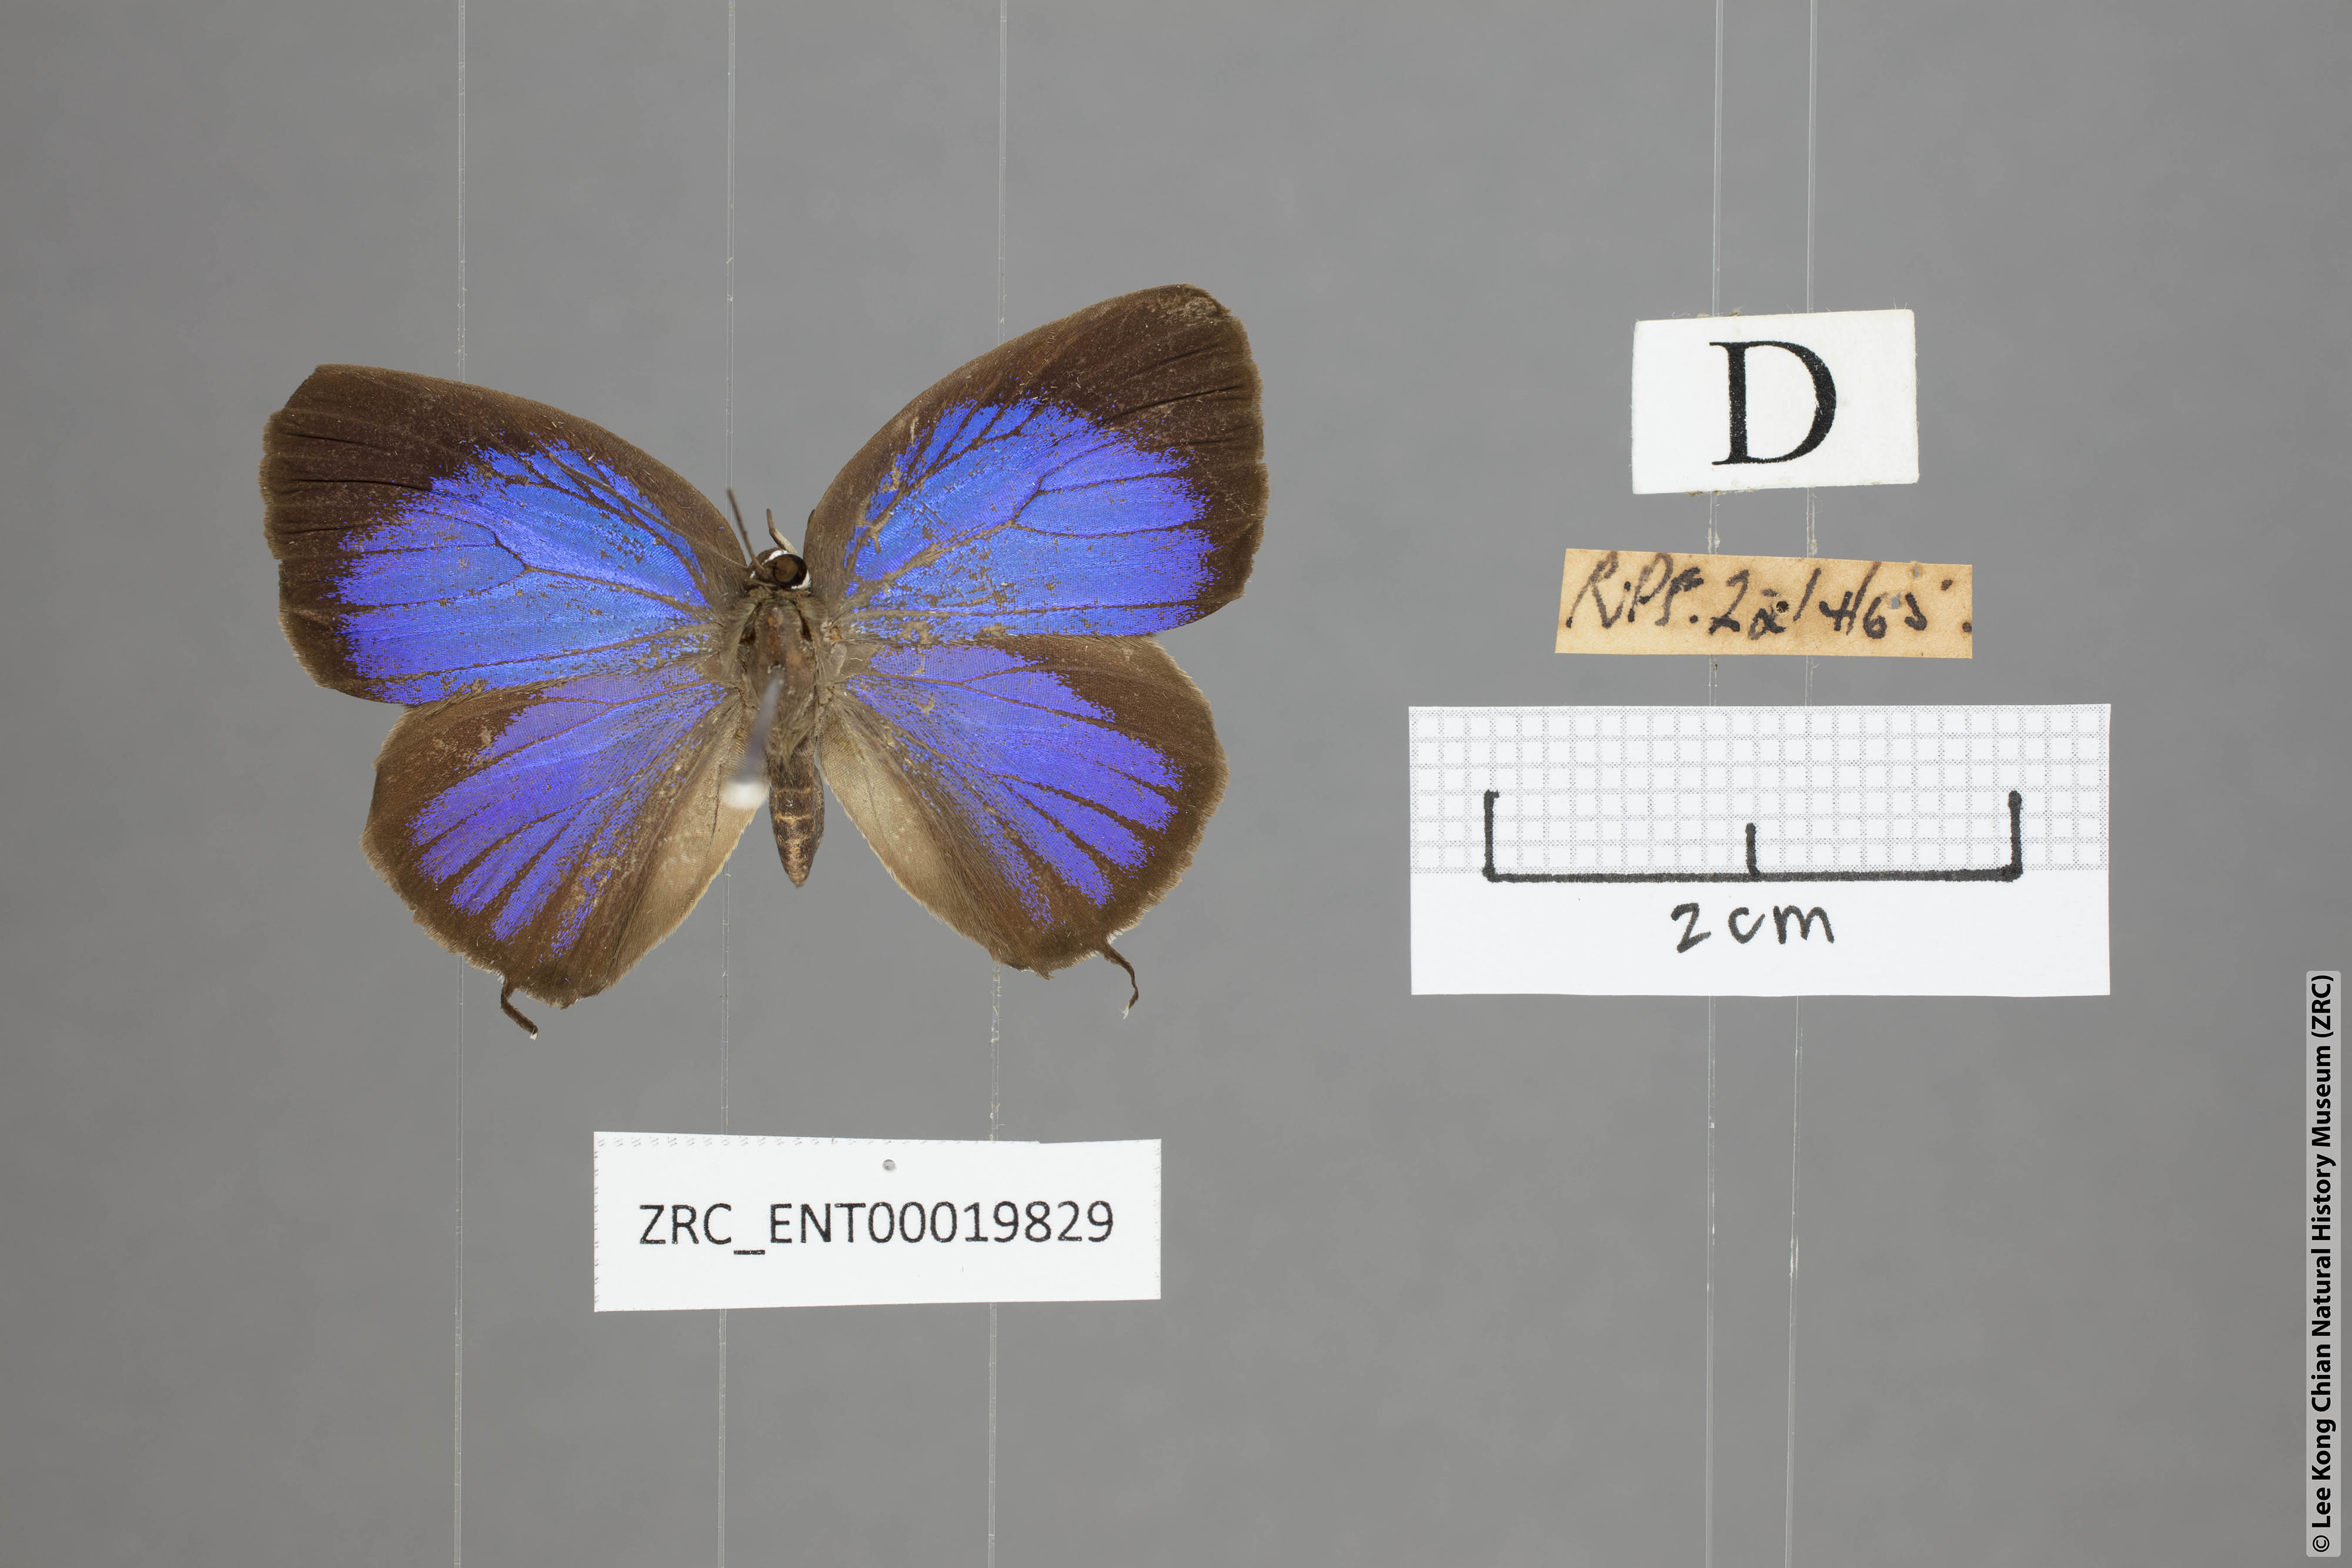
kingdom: Animalia
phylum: Arthropoda
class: Insecta
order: Lepidoptera
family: Lycaenidae
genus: Arhopala
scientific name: Arhopala pseudomuta
